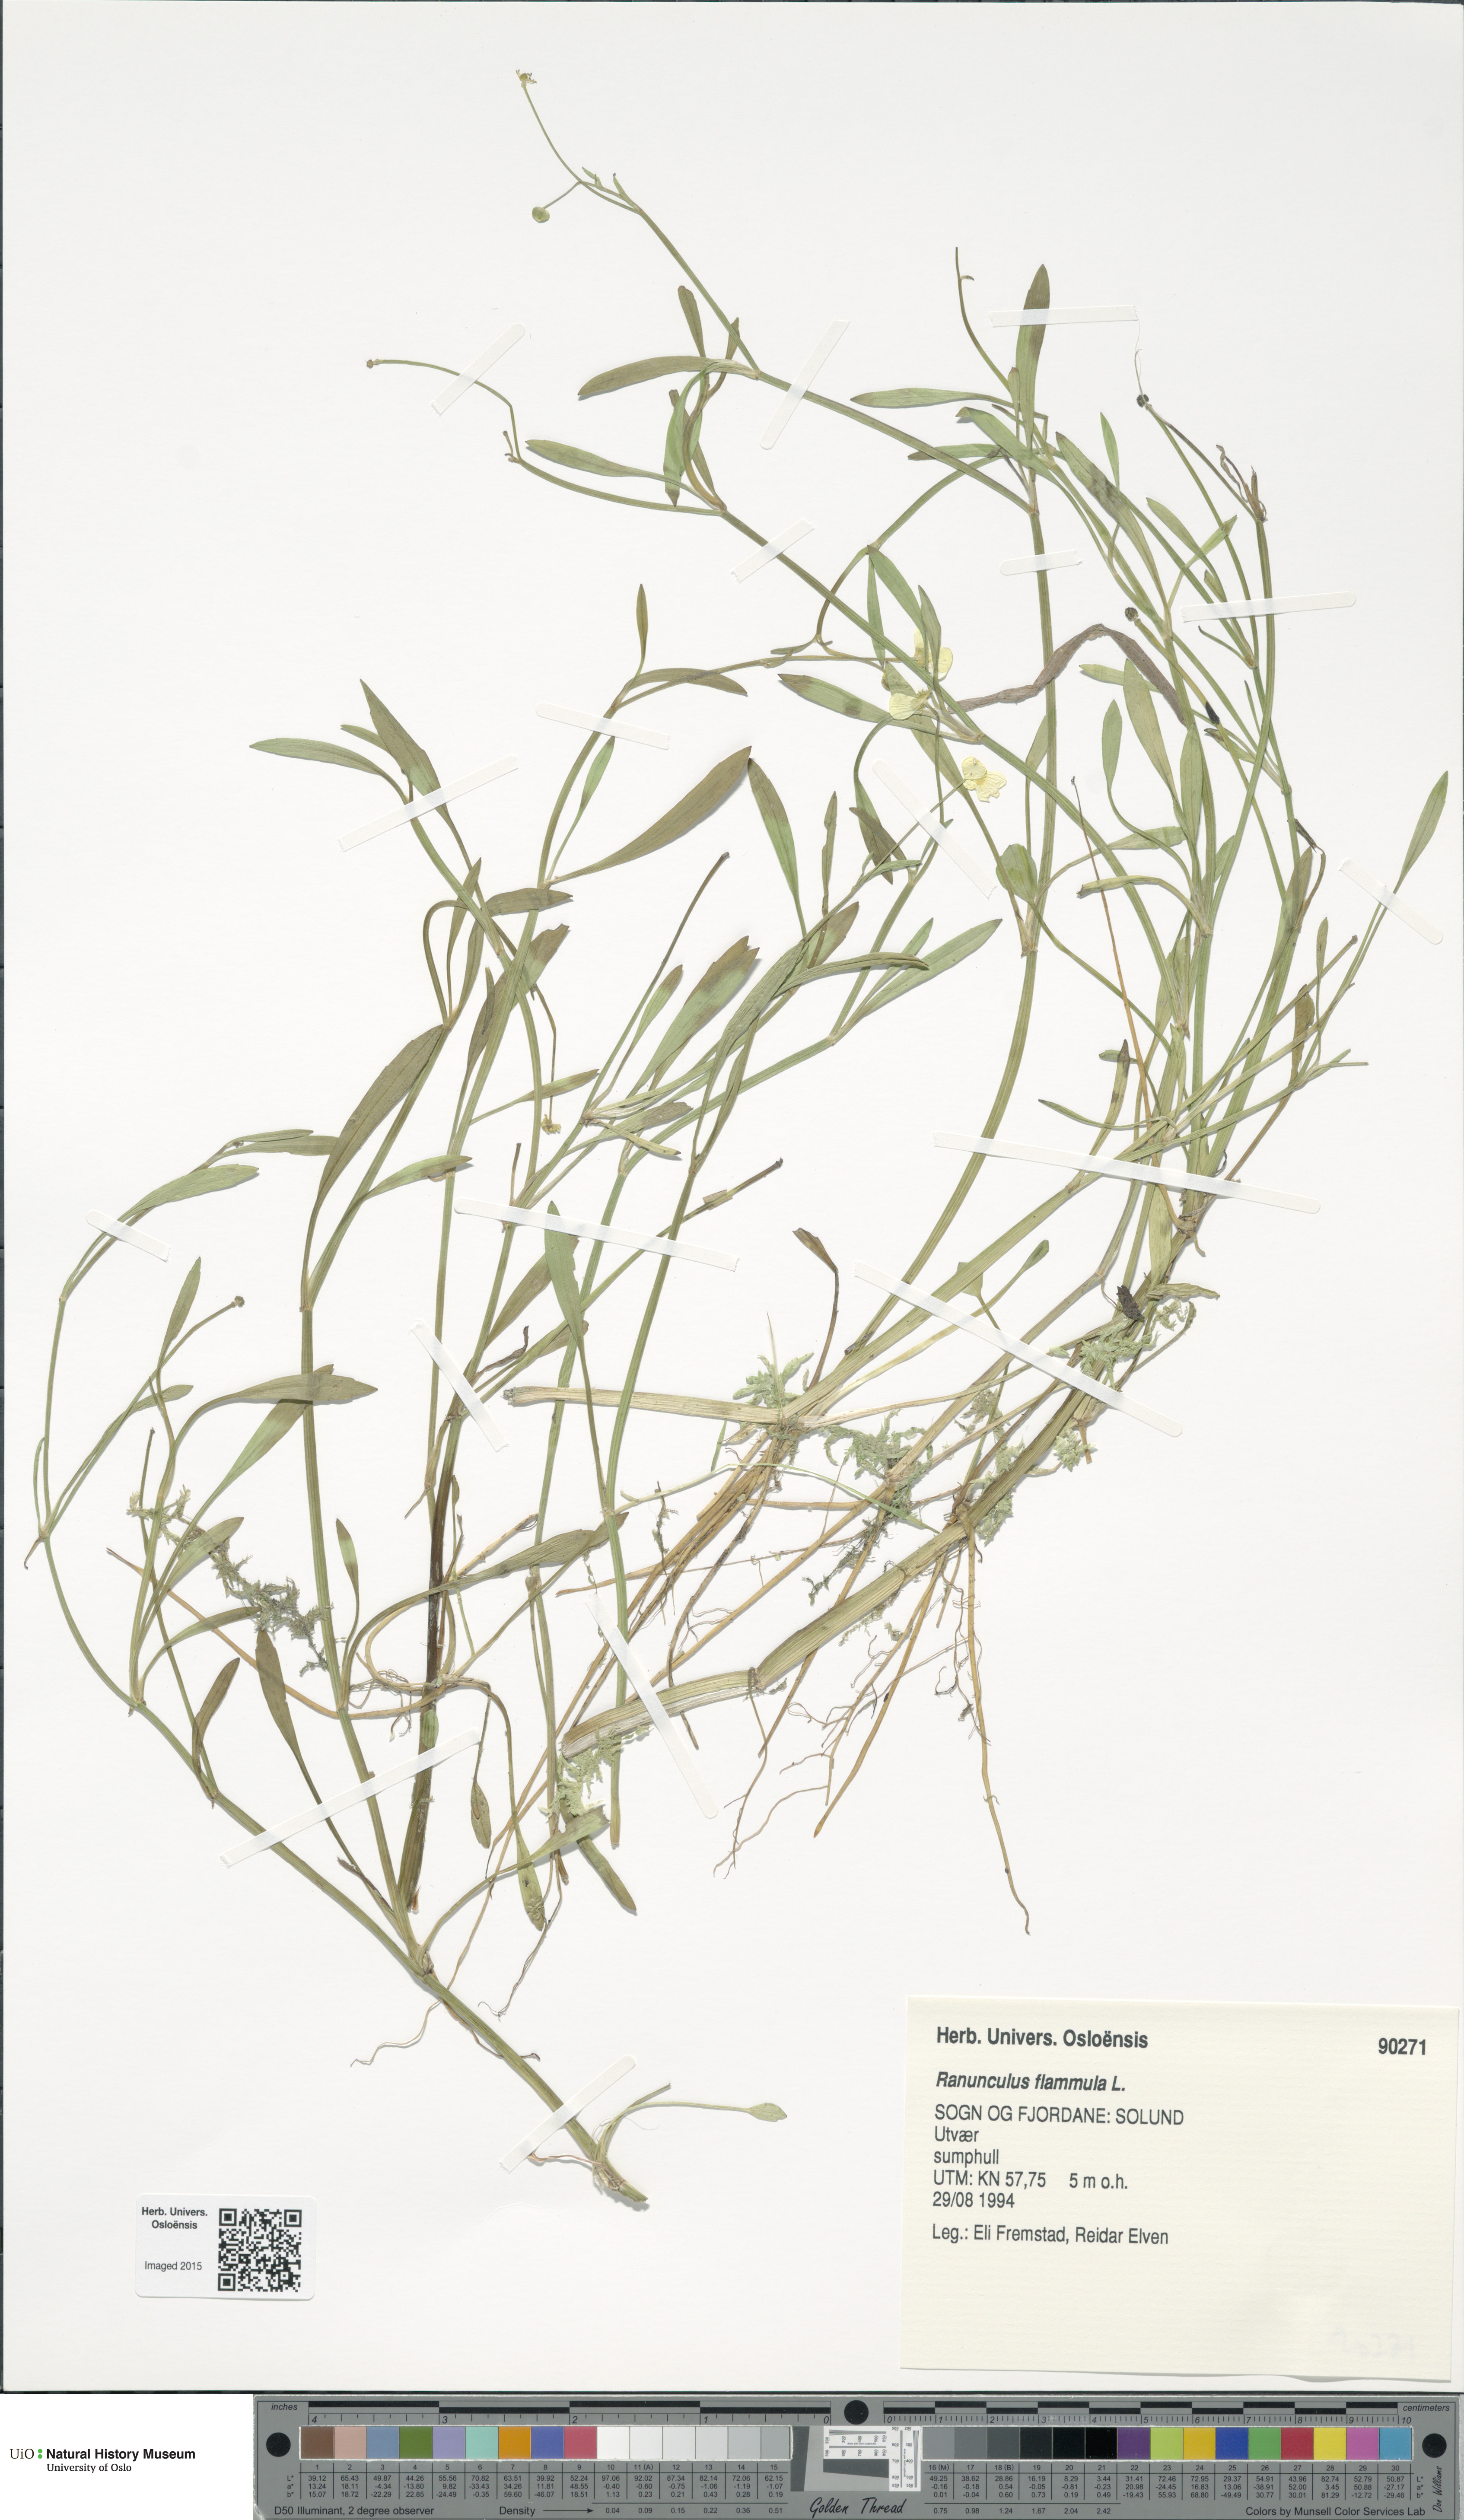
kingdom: Plantae
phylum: Tracheophyta
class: Magnoliopsida
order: Ranunculales
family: Ranunculaceae
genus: Ranunculus
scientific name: Ranunculus flammula
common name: Lesser spearwort
